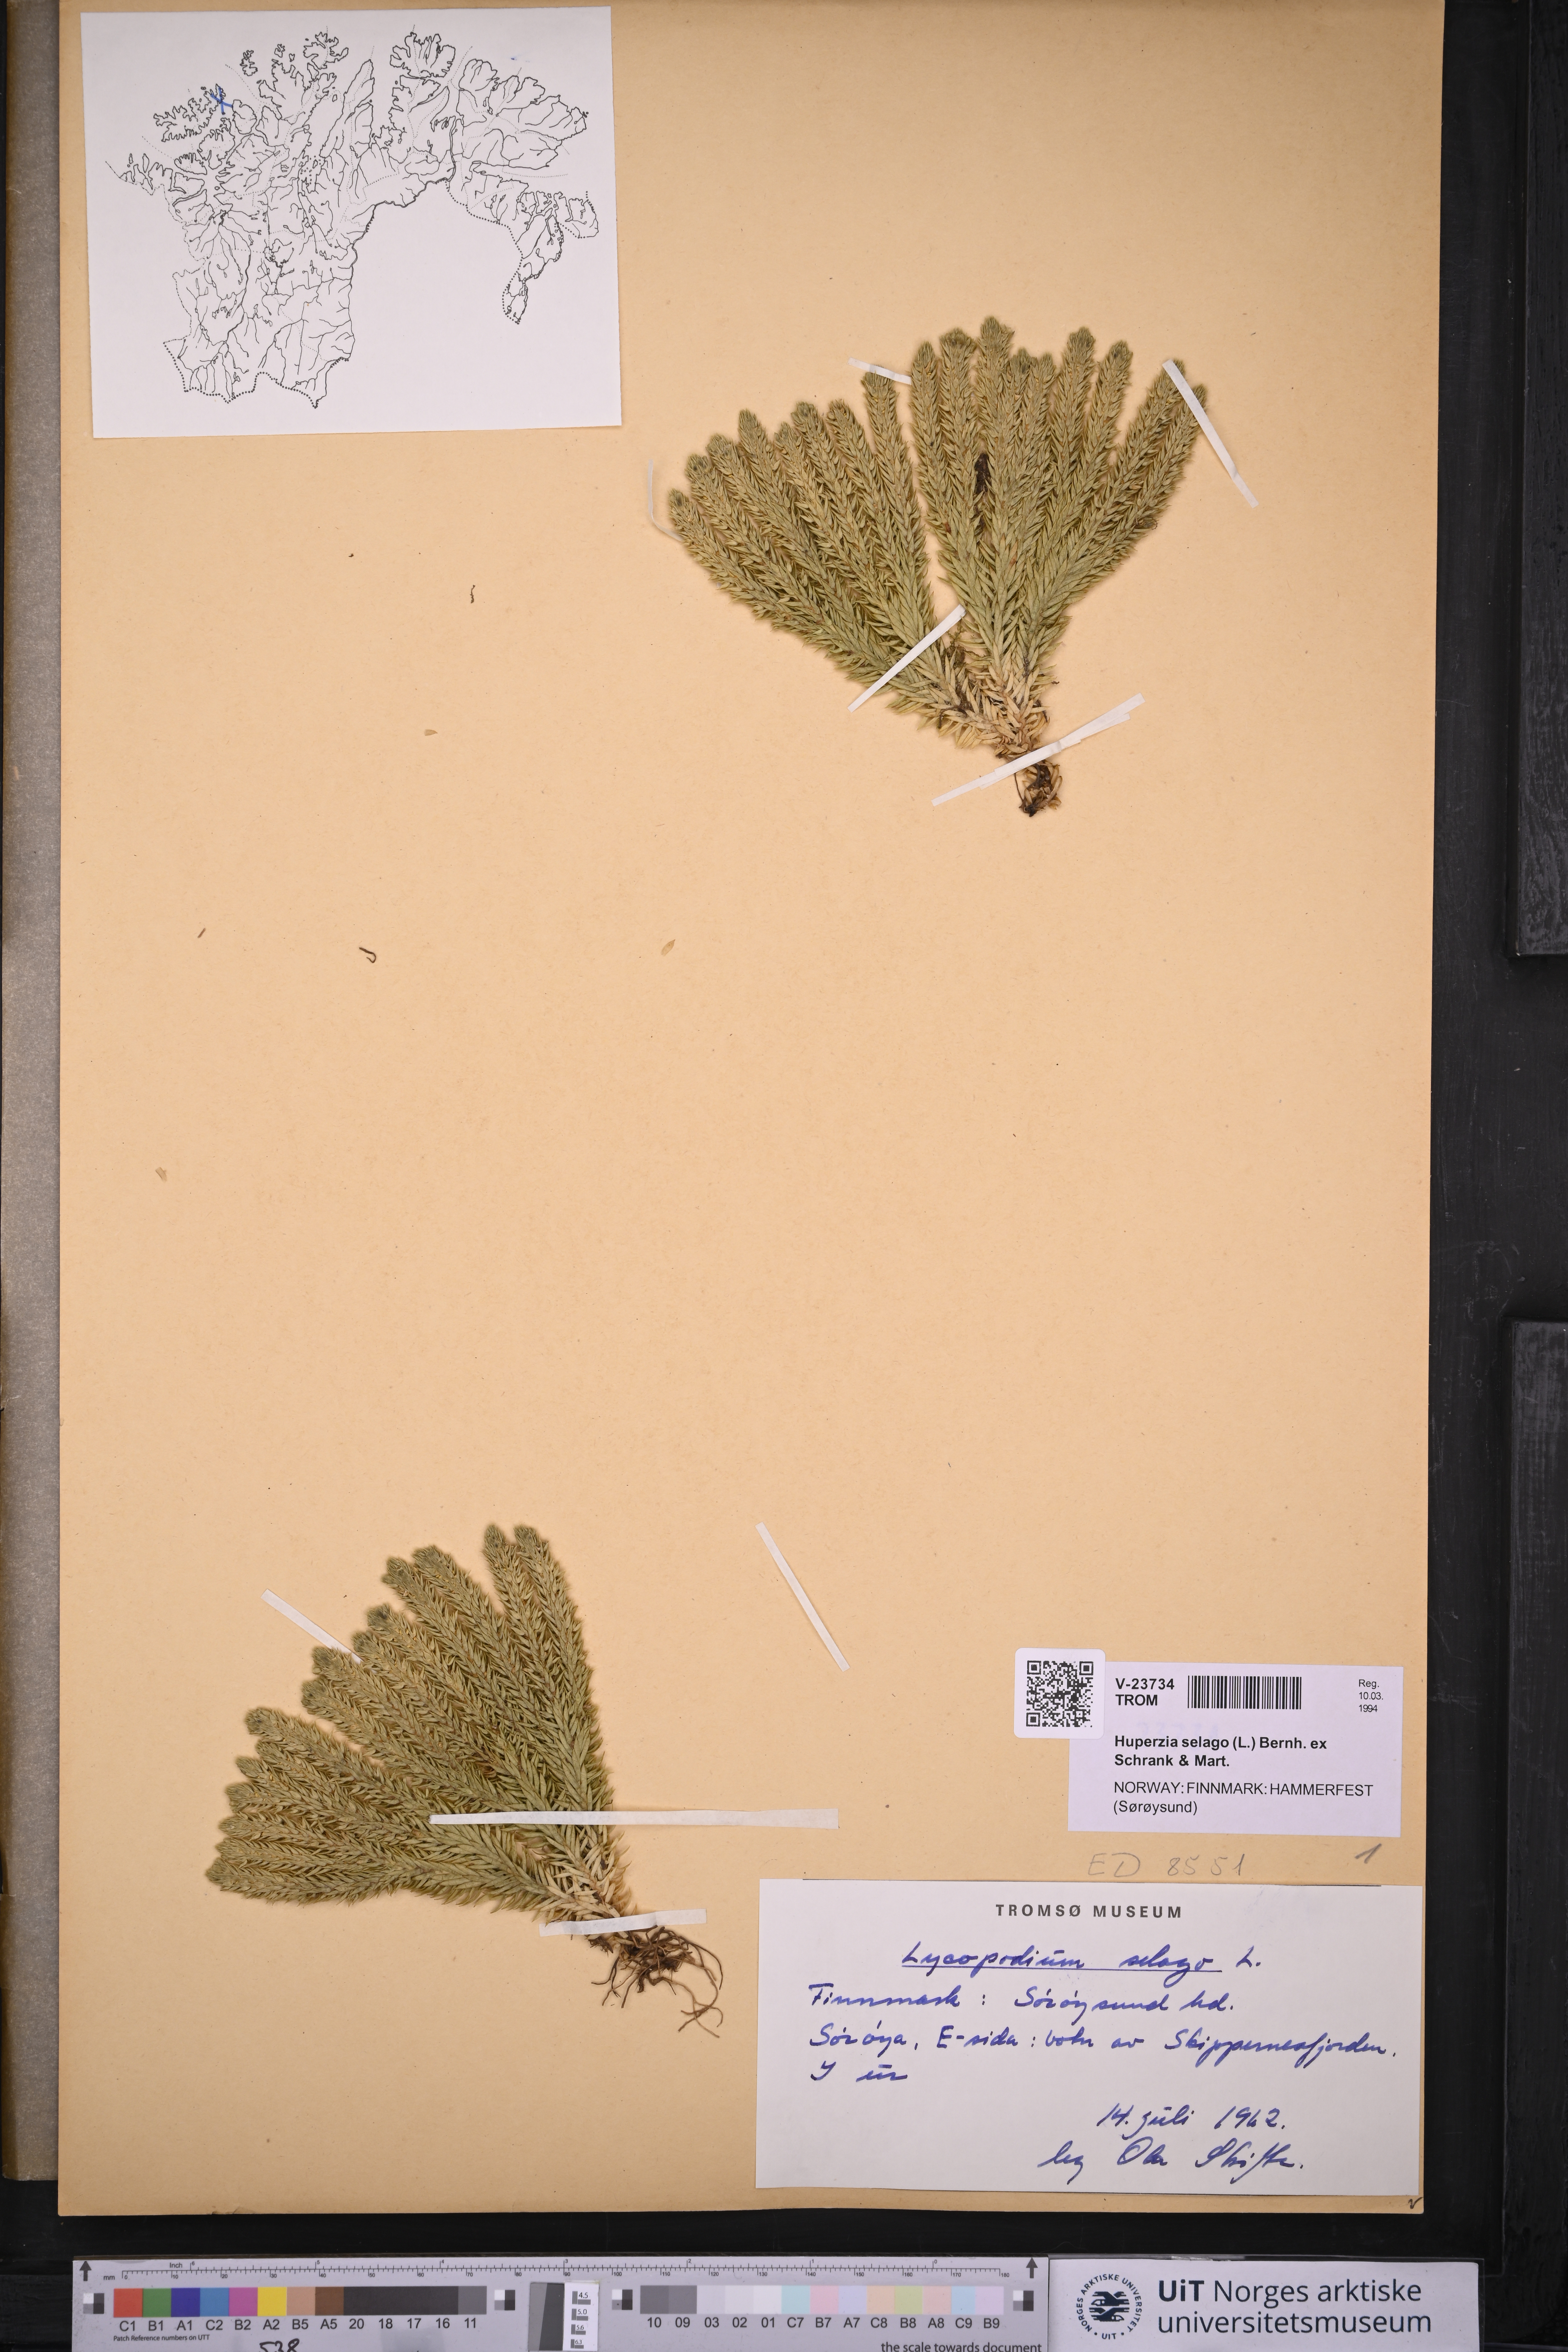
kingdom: Plantae
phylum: Tracheophyta
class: Lycopodiopsida
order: Lycopodiales
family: Lycopodiaceae
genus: Huperzia
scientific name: Huperzia selago
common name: Northern firmoss
